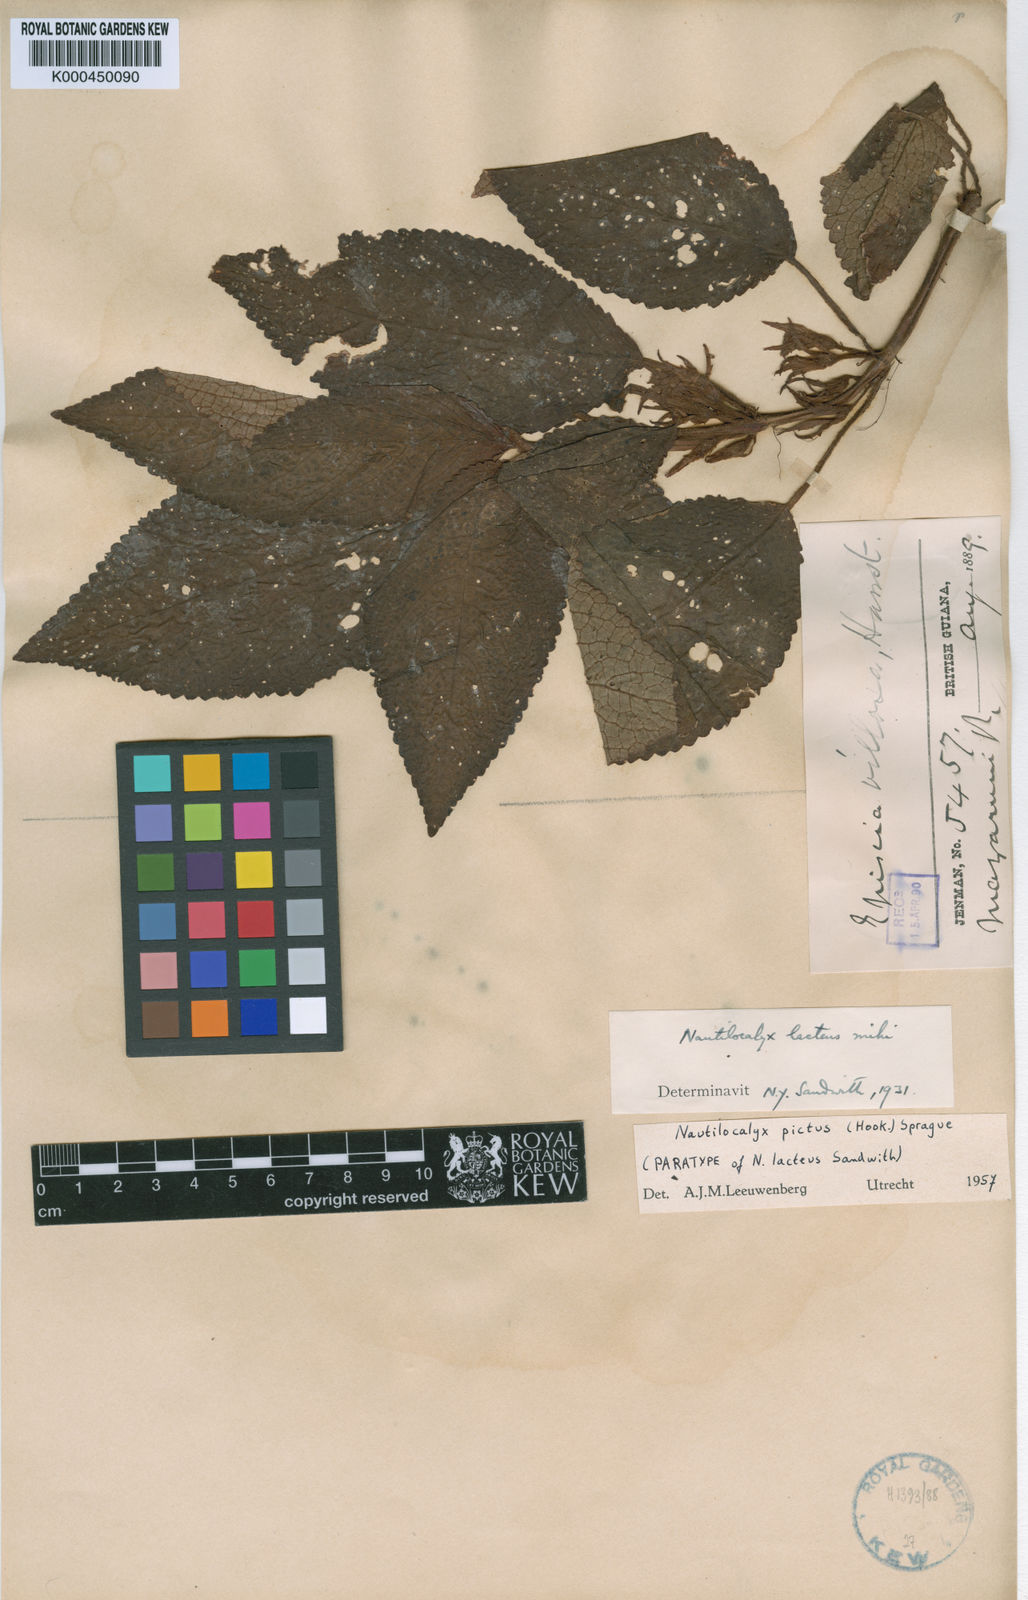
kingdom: Plantae
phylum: Tracheophyta
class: Magnoliopsida
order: Lamiales
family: Gesneriaceae
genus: Centrosolenia
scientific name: Centrosolenia picta
